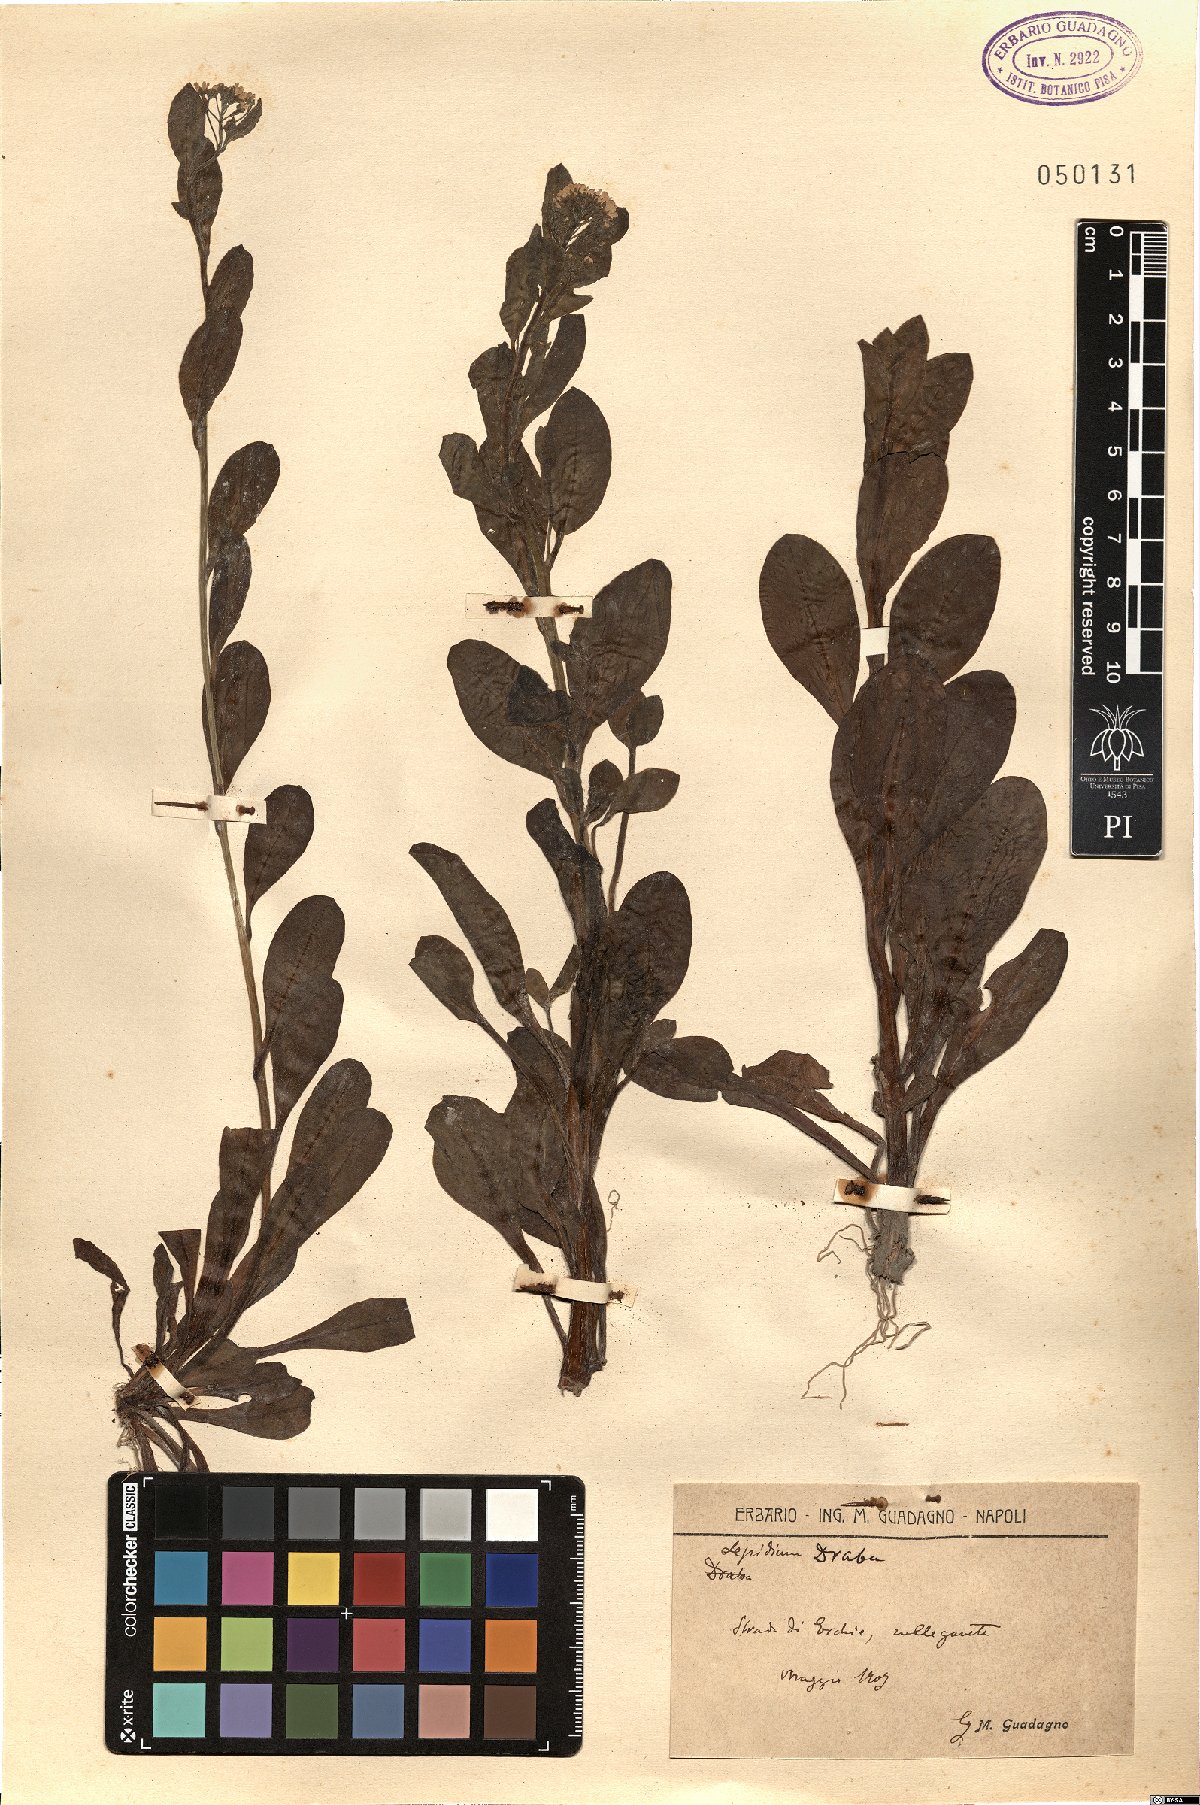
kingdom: Plantae
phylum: Tracheophyta
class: Magnoliopsida
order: Brassicales
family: Brassicaceae
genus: Lepidium
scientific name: Lepidium draba
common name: Hoary cress
